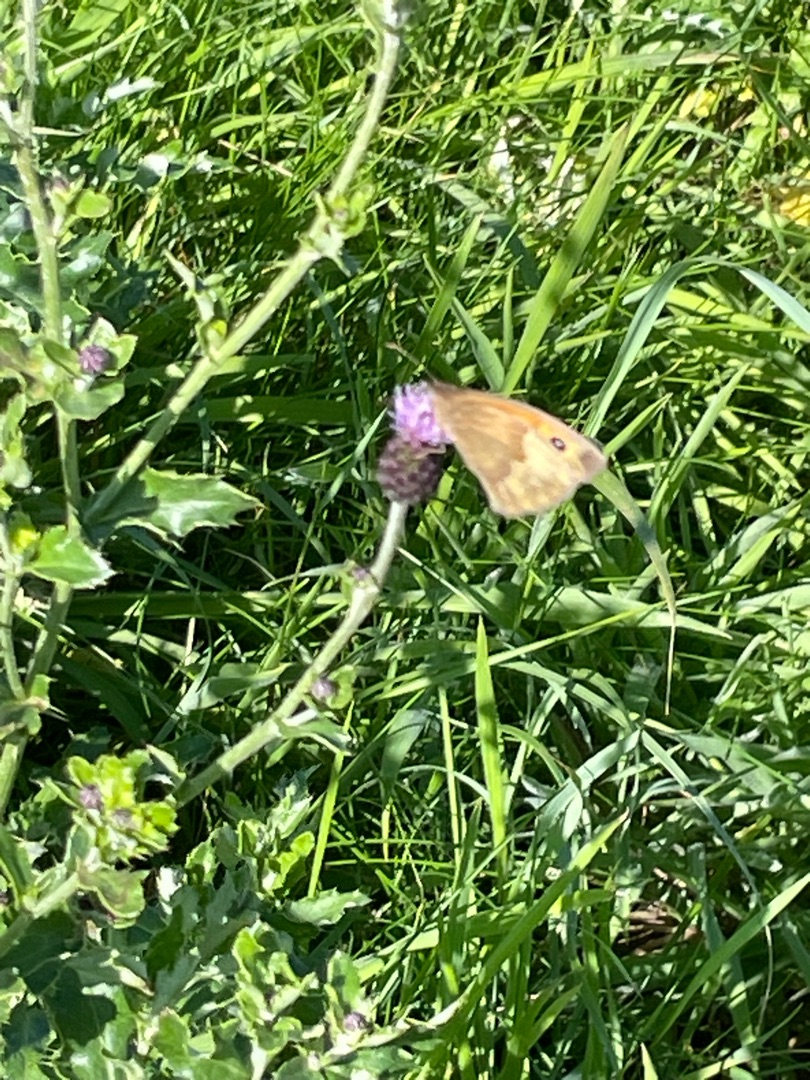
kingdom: Animalia
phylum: Arthropoda
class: Insecta
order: Lepidoptera
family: Nymphalidae
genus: Maniola
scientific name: Maniola jurtina
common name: Græsrandøje
